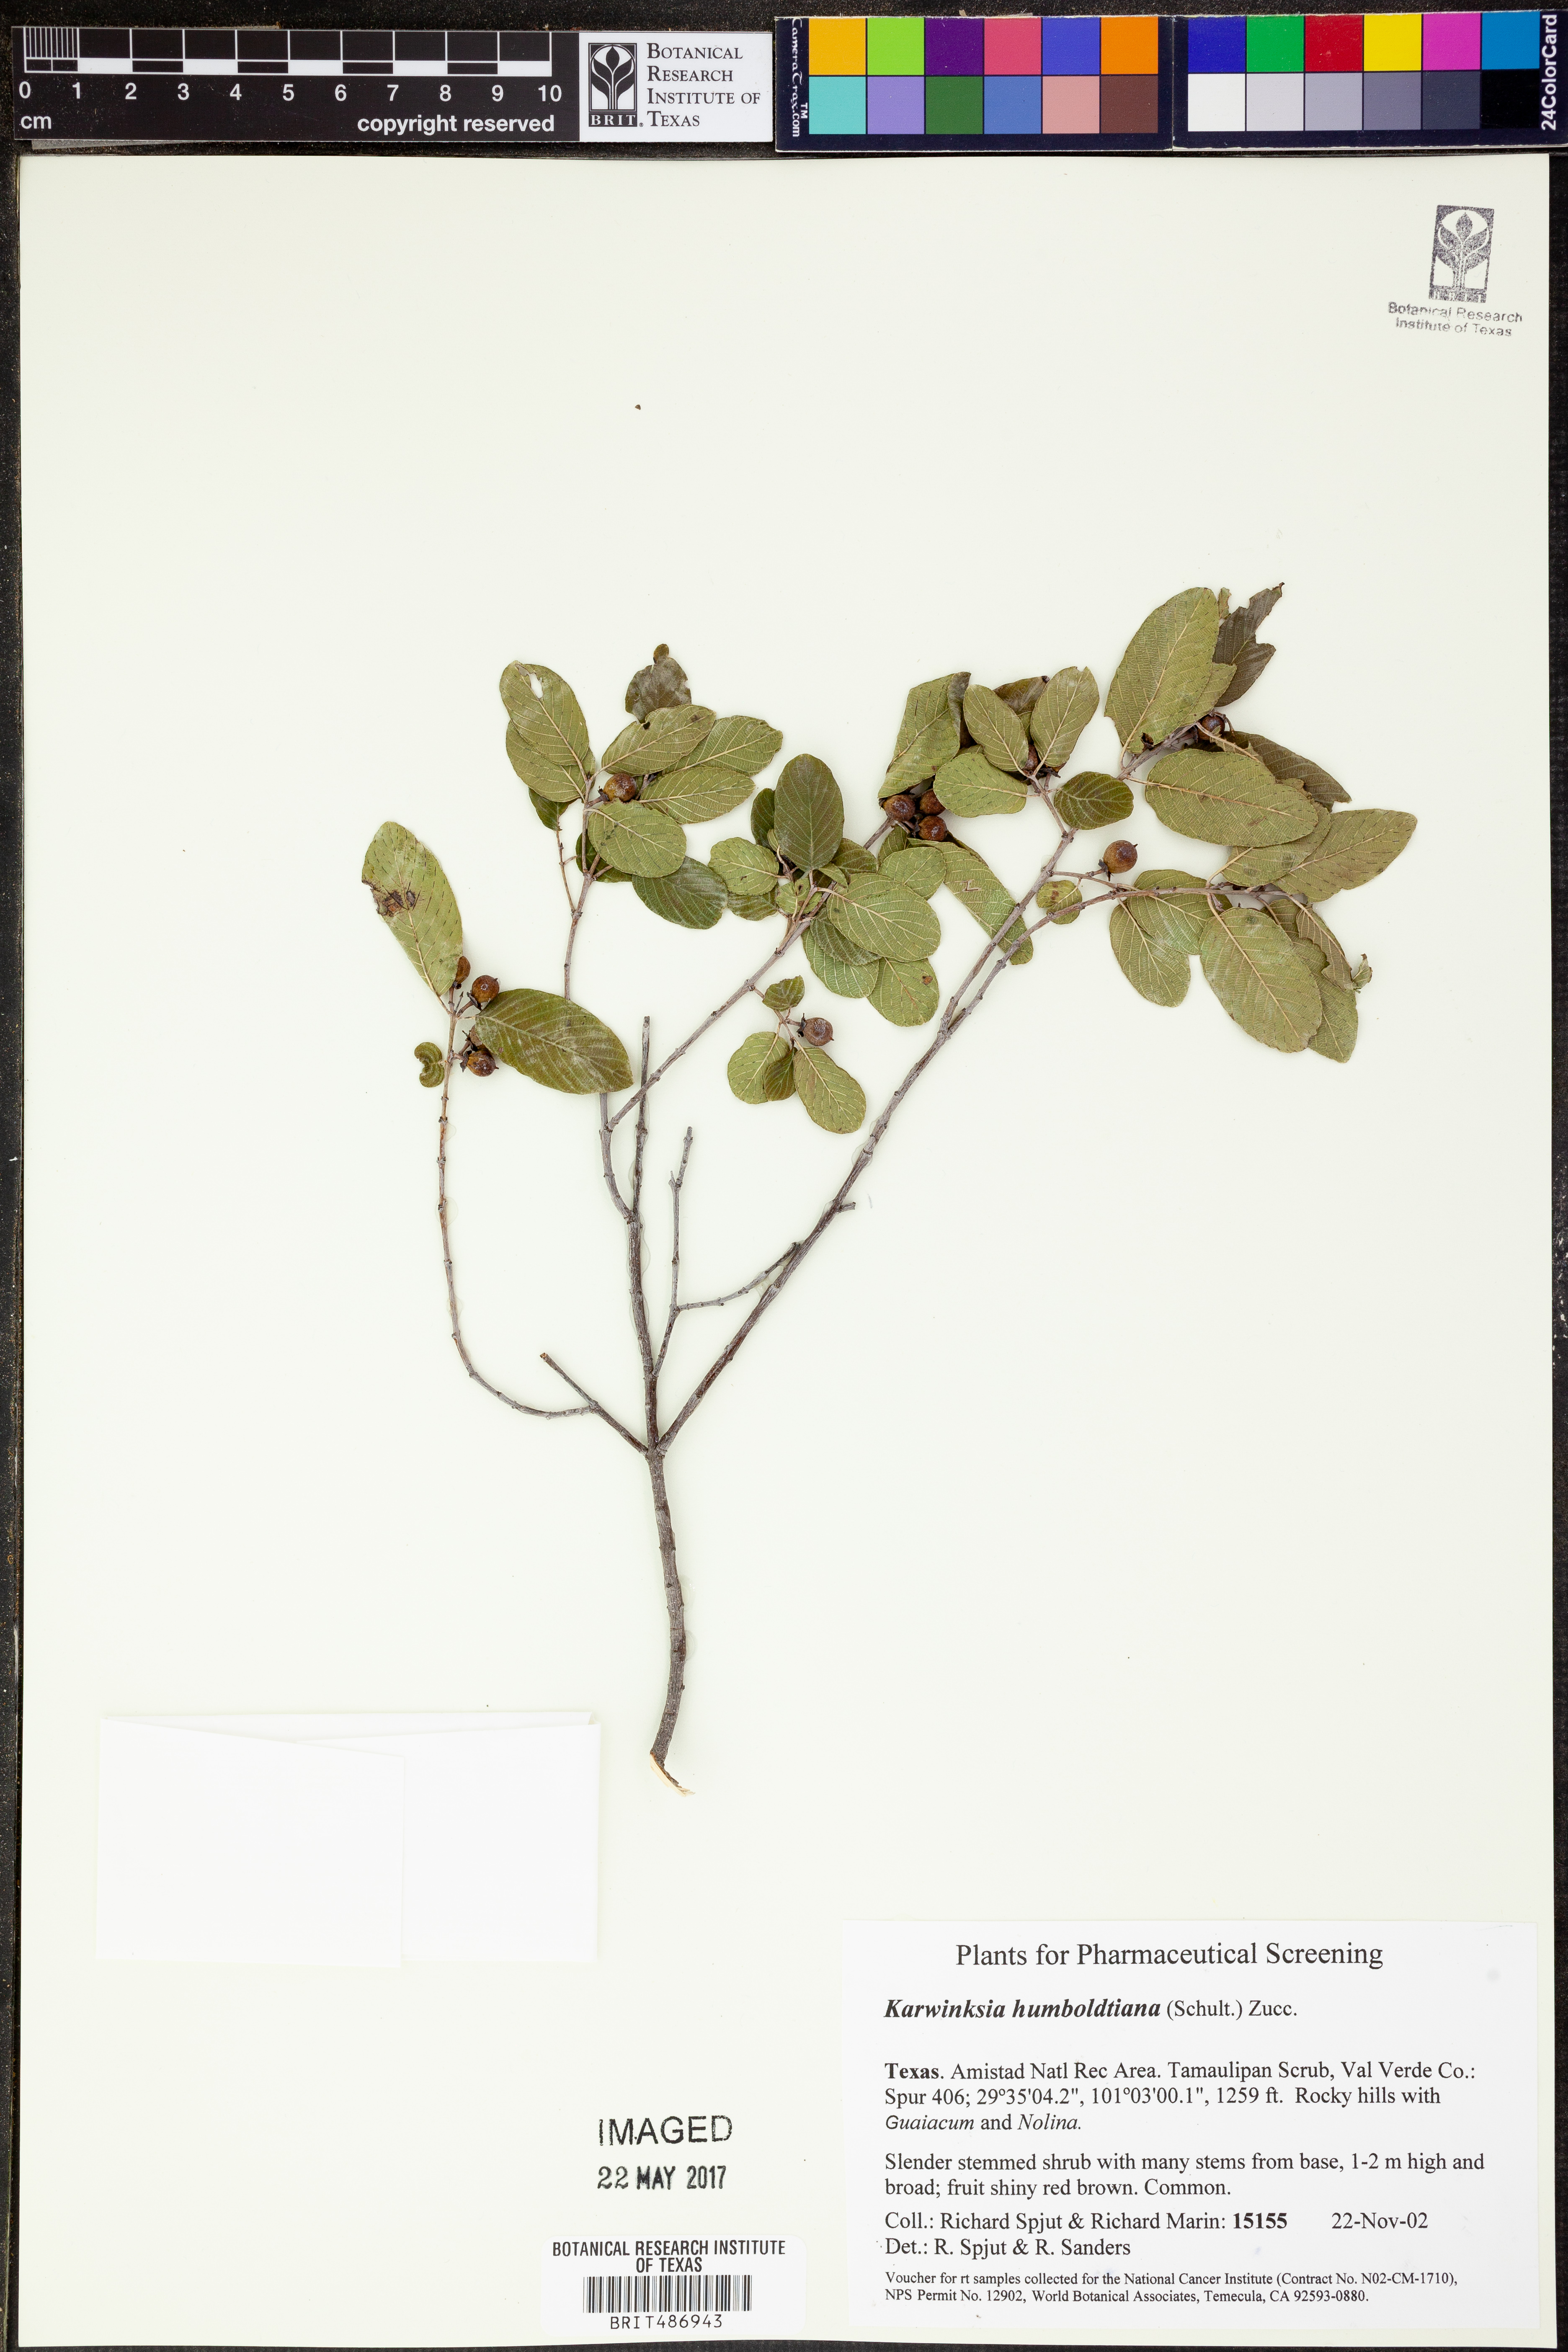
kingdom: Plantae
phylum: Tracheophyta
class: Magnoliopsida
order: Rosales
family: Rhamnaceae
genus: Karwinskia
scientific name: Karwinskia humboldtiana
